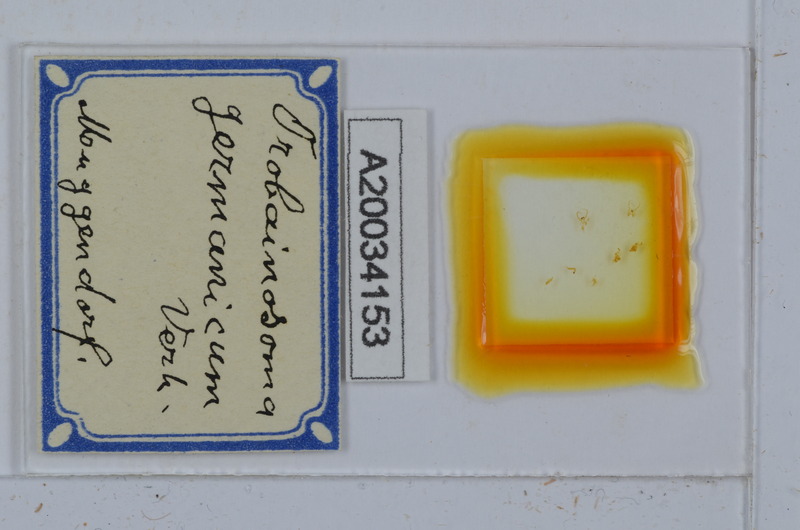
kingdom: Animalia
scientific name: Animalia
